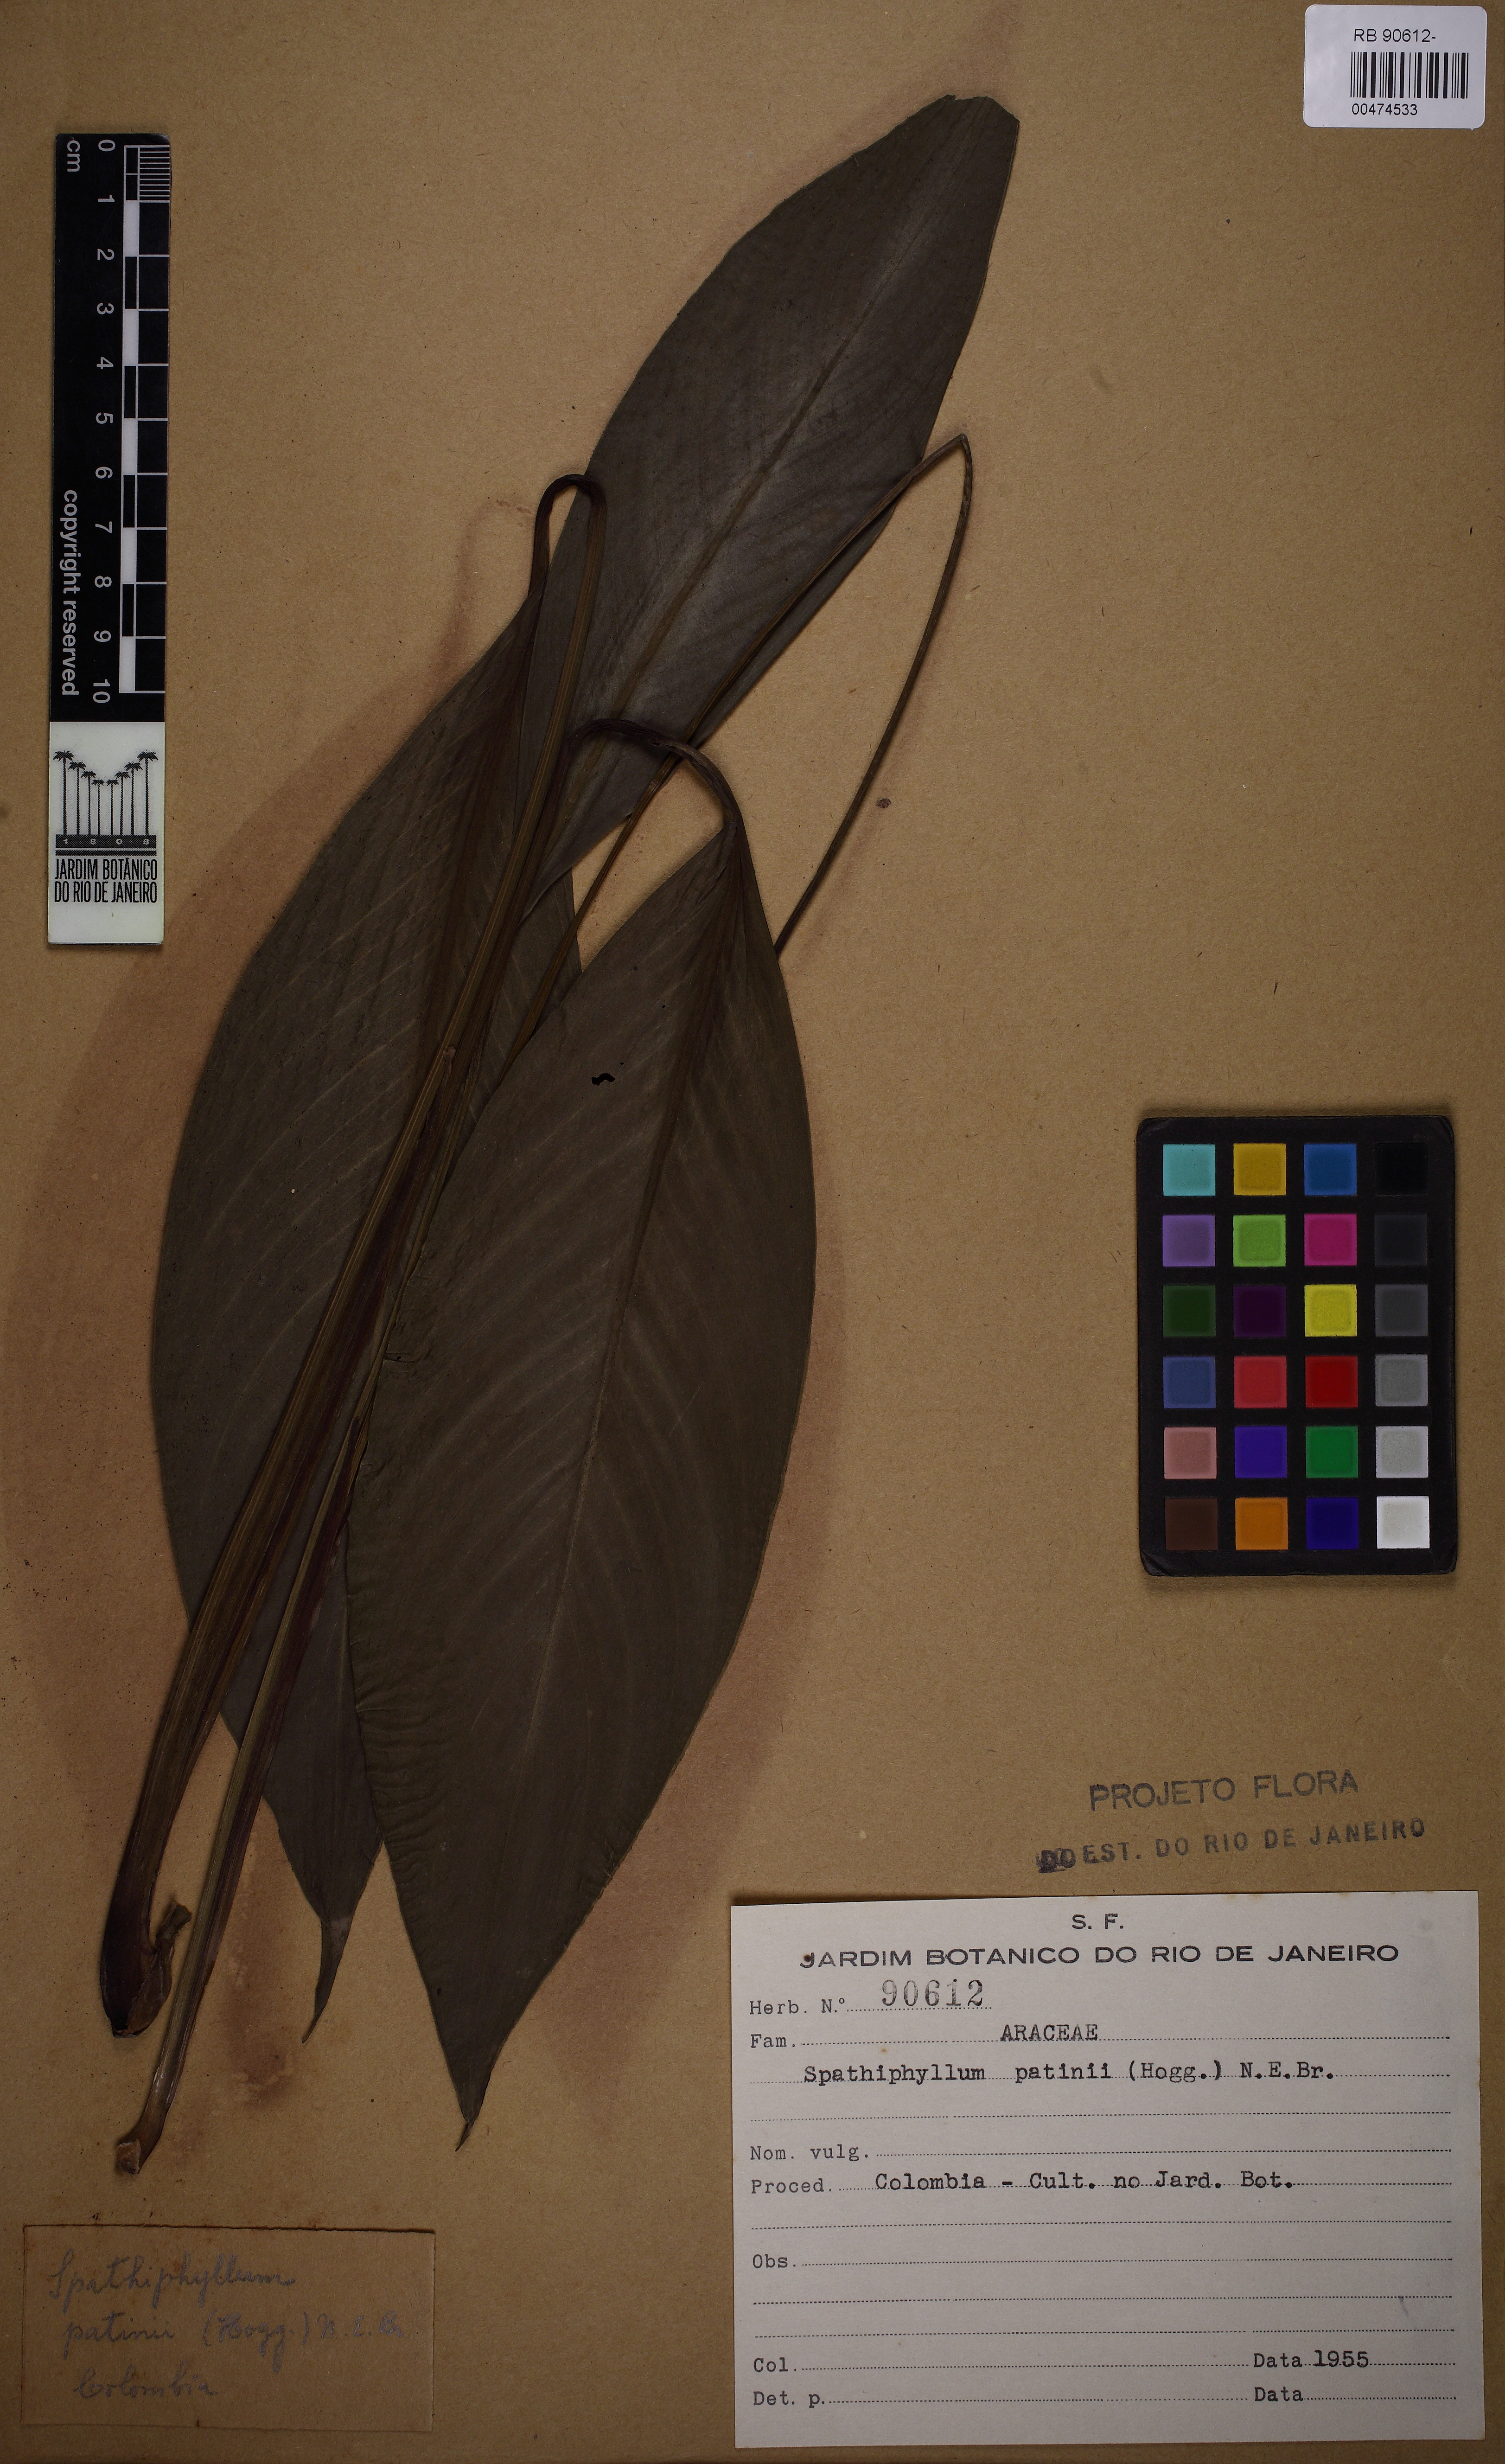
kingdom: Plantae
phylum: Tracheophyta
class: Liliopsida
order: Alismatales
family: Araceae
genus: Spathiphyllum
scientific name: Spathiphyllum patinii
